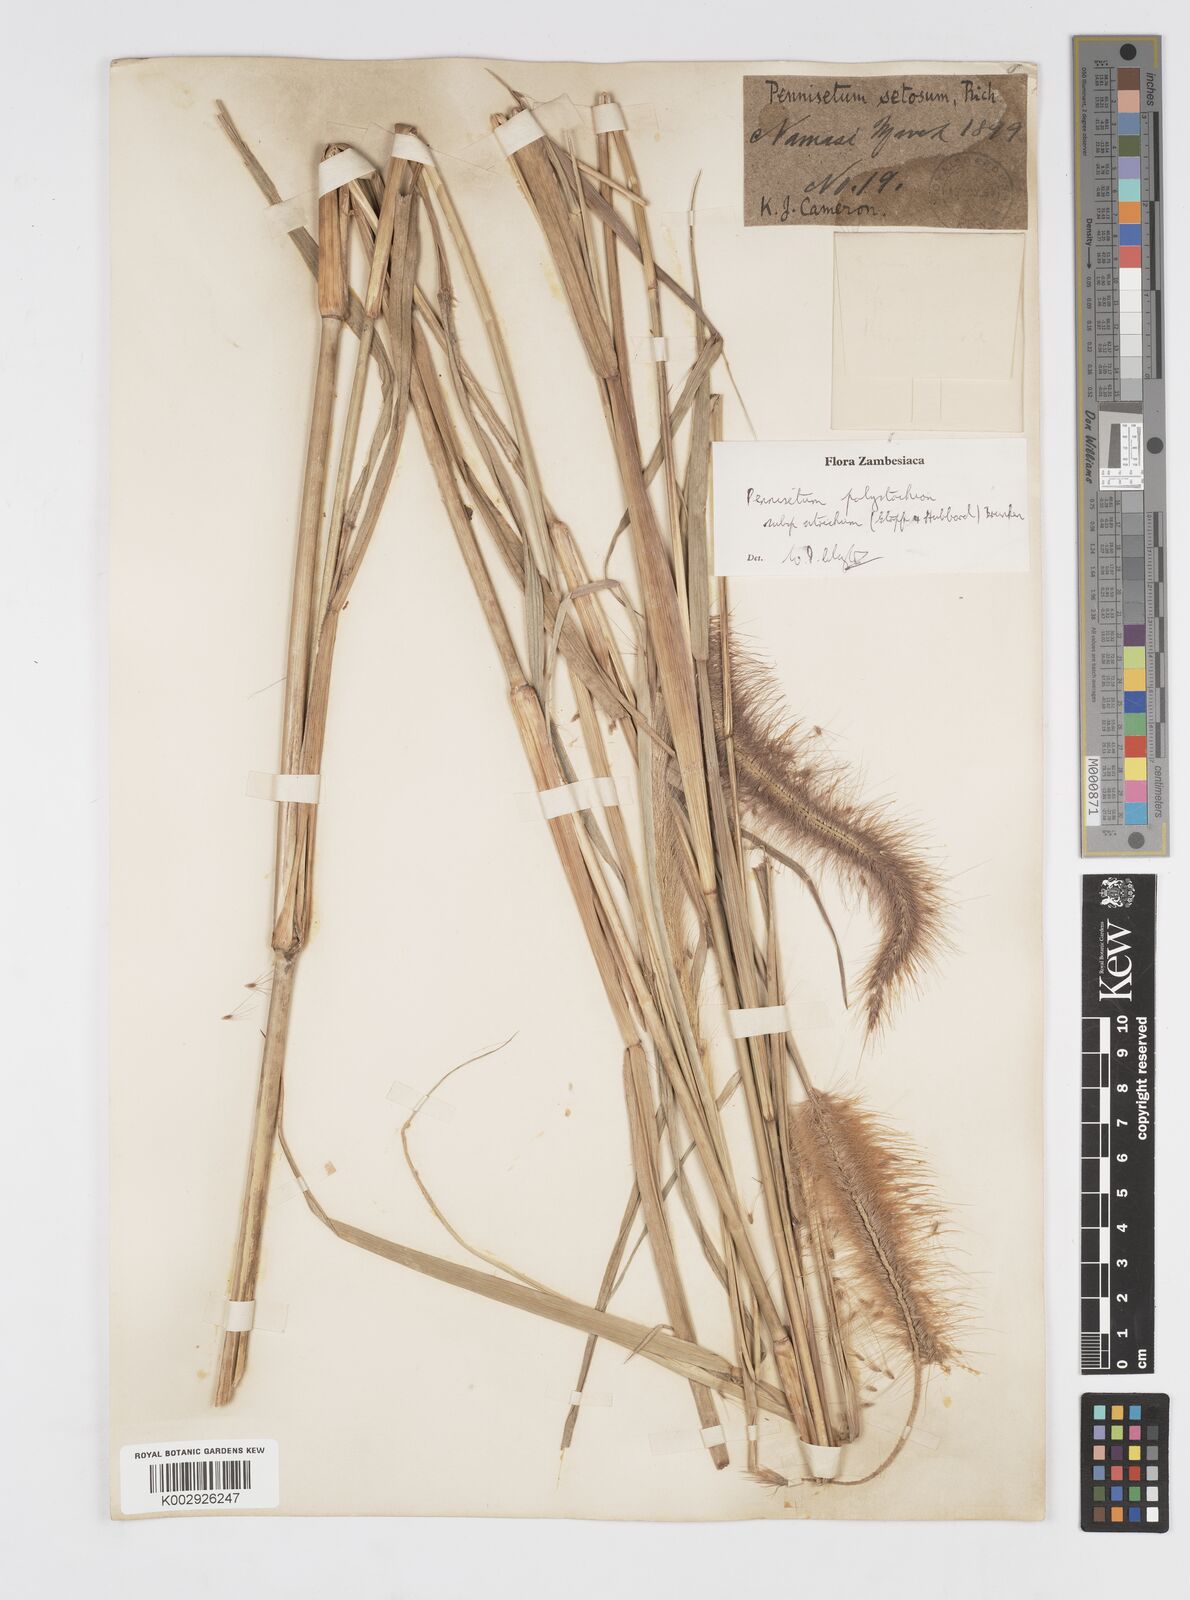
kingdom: Plantae
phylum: Tracheophyta
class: Liliopsida
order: Poales
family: Poaceae
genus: Cenchrus
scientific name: Cenchrus setosus
